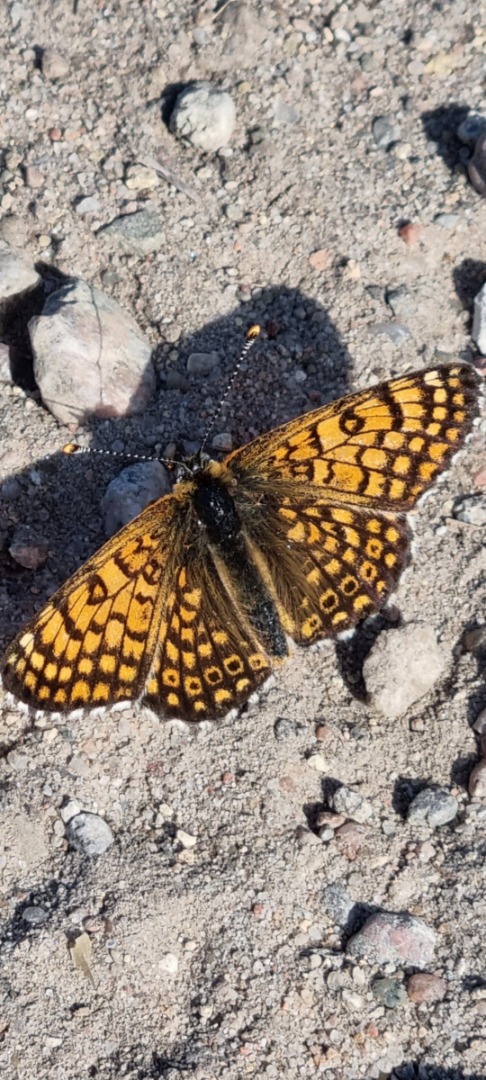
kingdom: Animalia
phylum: Arthropoda
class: Insecta
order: Lepidoptera
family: Nymphalidae
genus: Melitaea
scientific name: Melitaea cinxia
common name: Okkergul pletvinge
